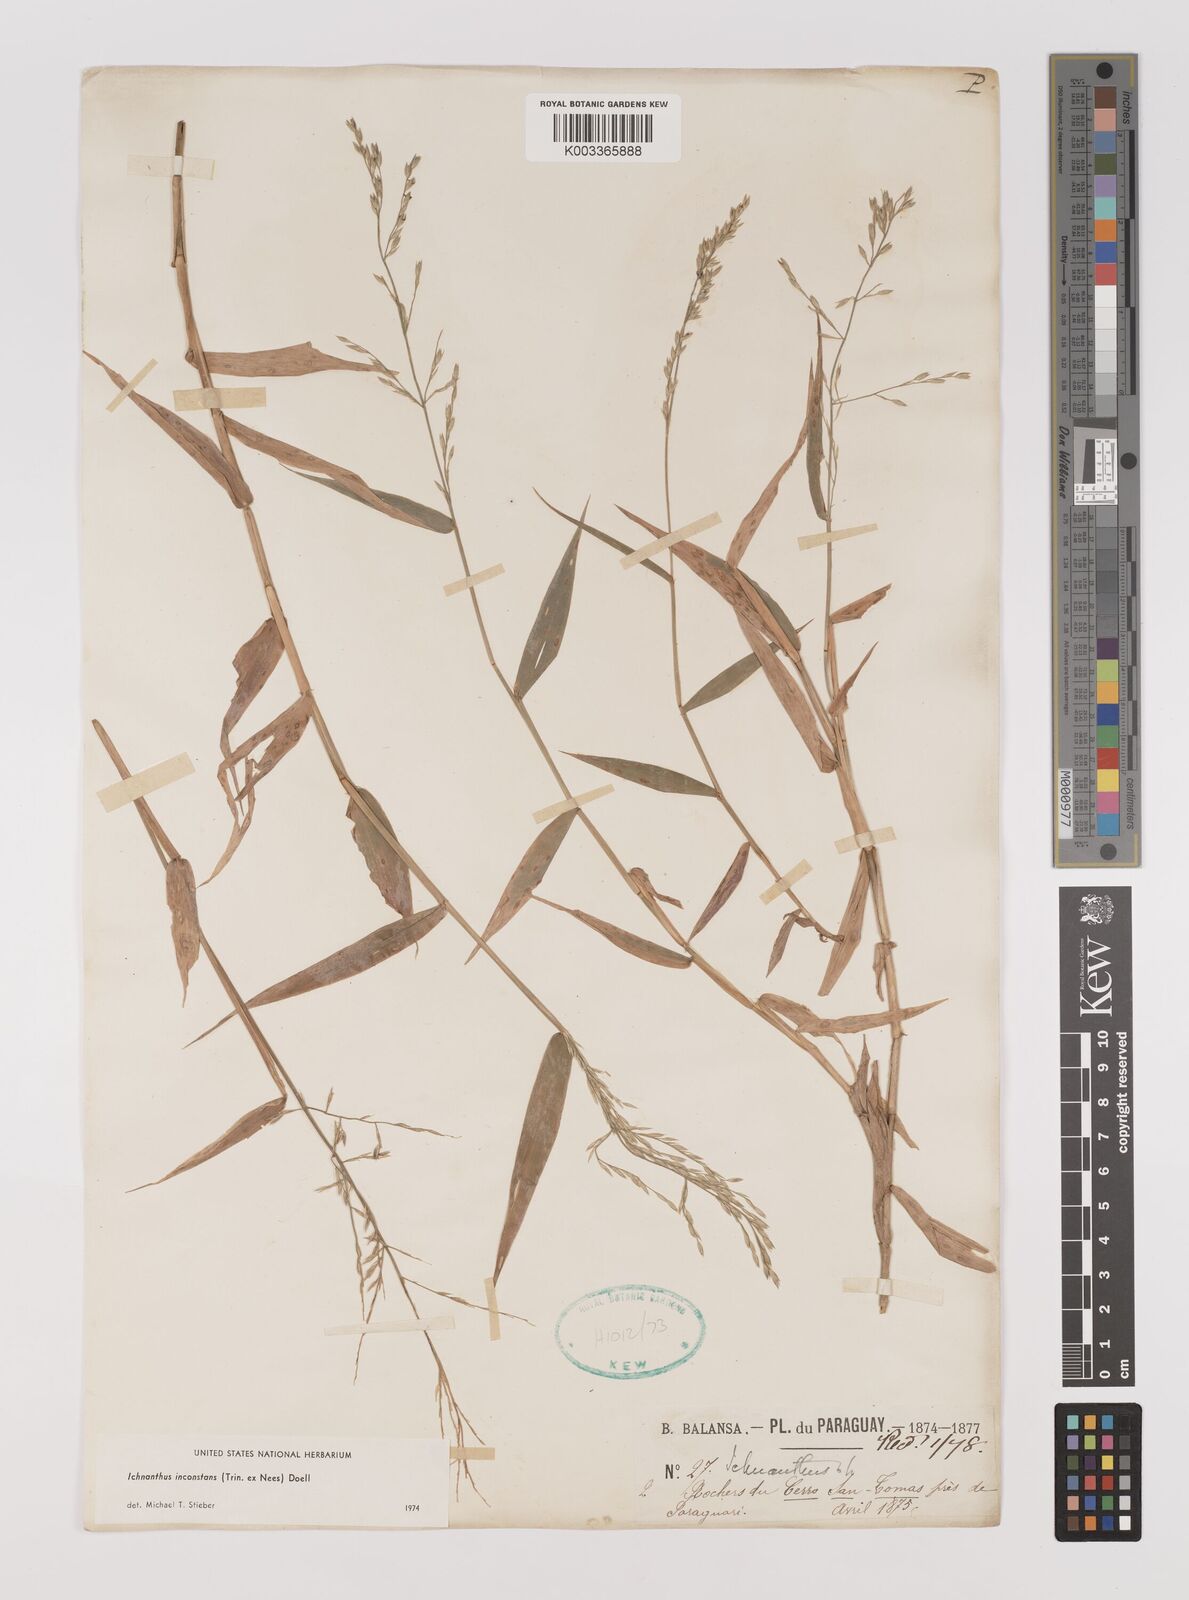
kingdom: Plantae
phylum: Tracheophyta
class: Liliopsida
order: Poales
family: Poaceae
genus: Ichnanthus
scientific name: Ichnanthus inconstans
